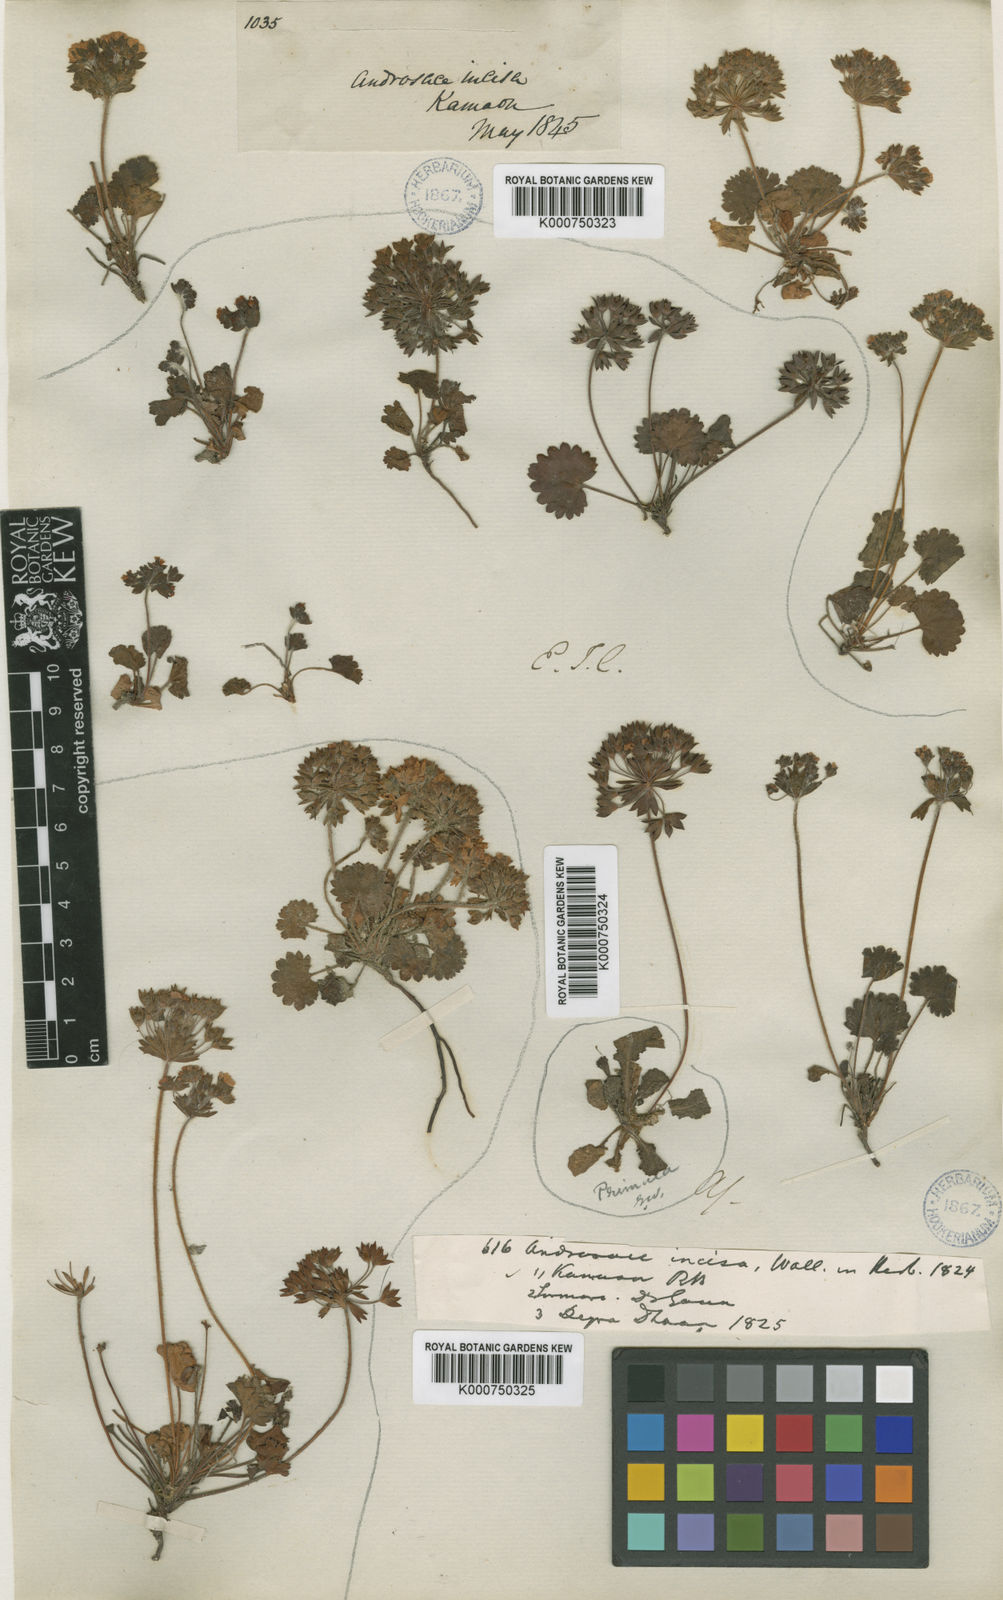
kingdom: Plantae
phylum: Tracheophyta
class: Magnoliopsida
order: Ericales
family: Primulaceae
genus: Androsace
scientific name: Androsace rotundifolia
